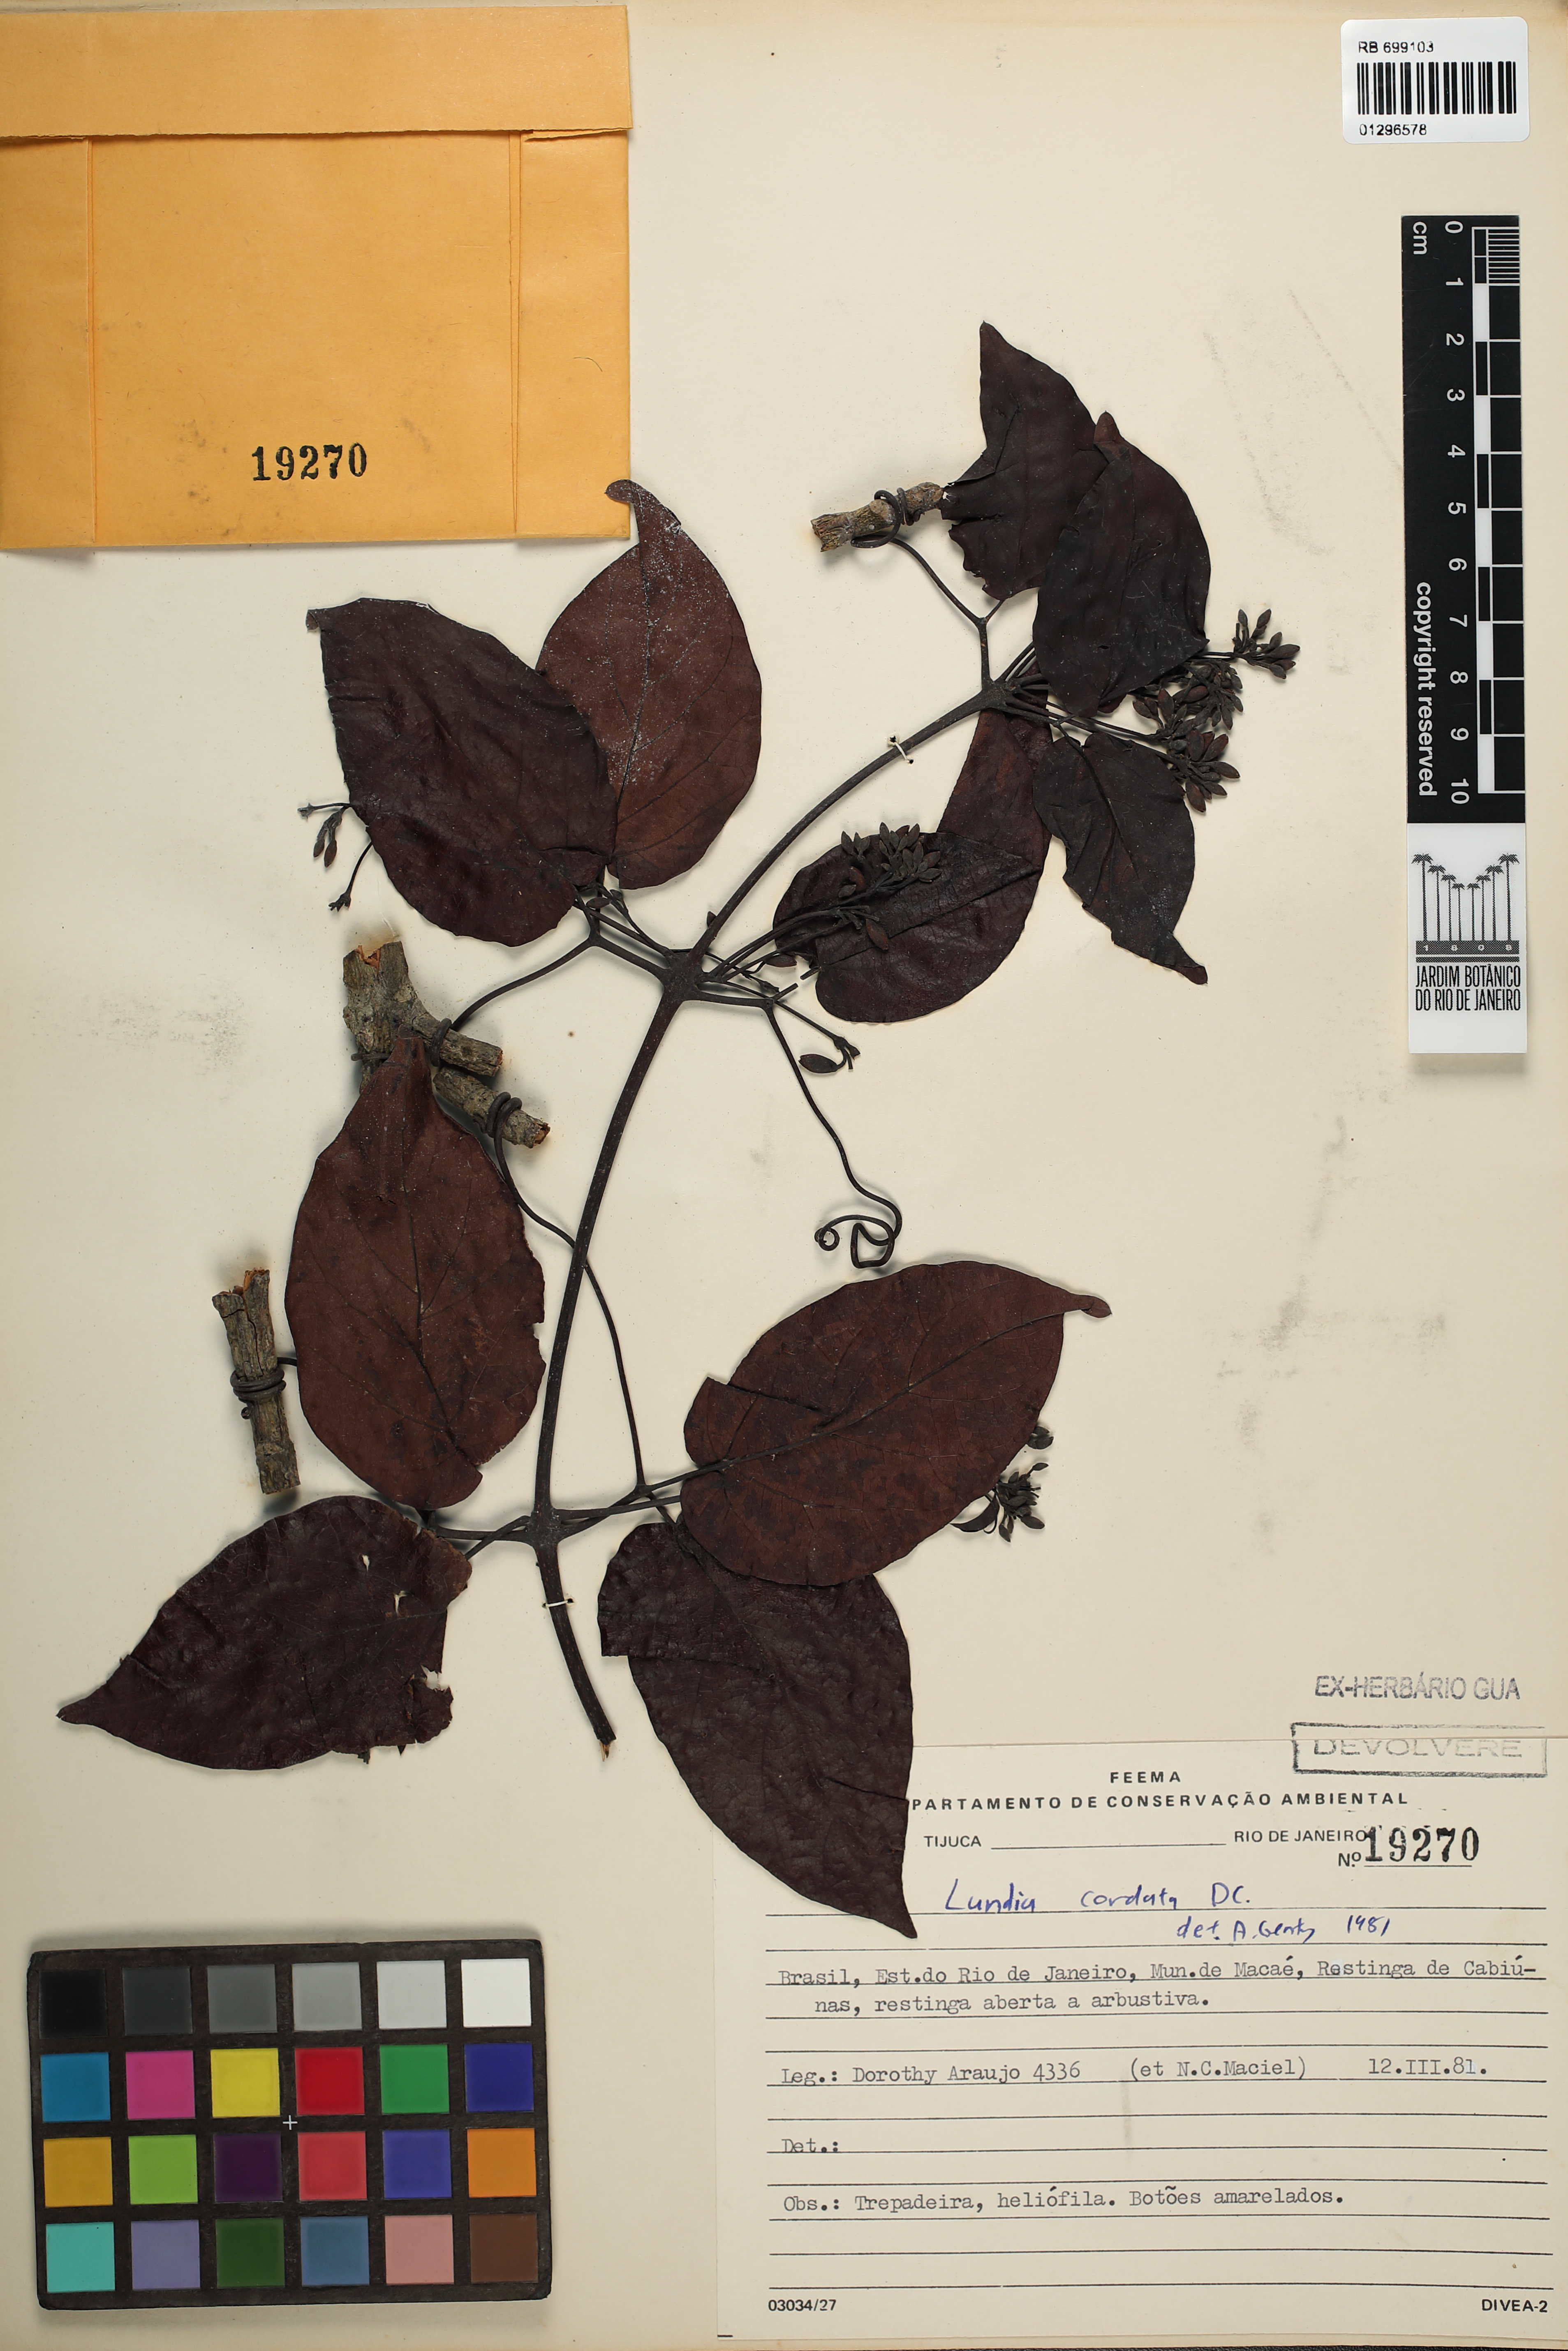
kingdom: Plantae
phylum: Tracheophyta
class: Magnoliopsida
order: Lamiales
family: Bignoniaceae
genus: Lundia
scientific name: Lundia longa
